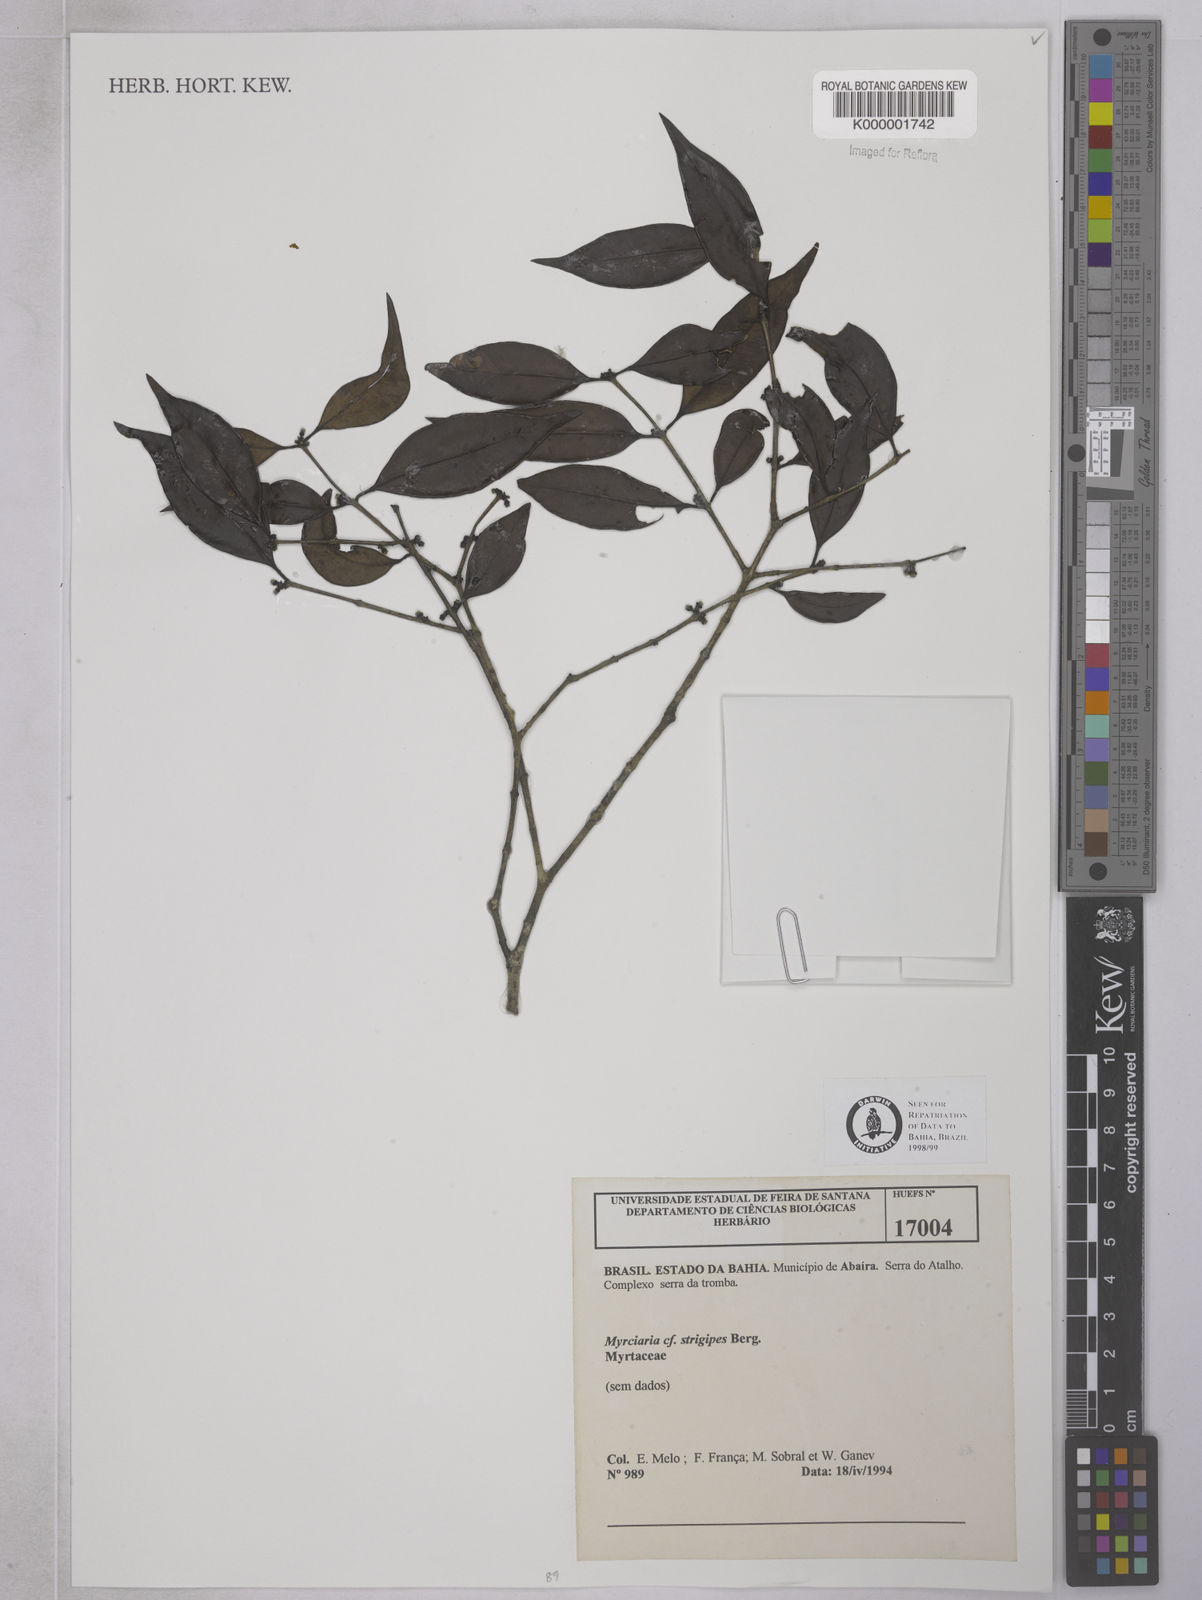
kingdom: Plantae
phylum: Tracheophyta
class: Magnoliopsida
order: Myrtales
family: Myrtaceae
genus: Myrciaria
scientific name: Myrciaria strigipes
